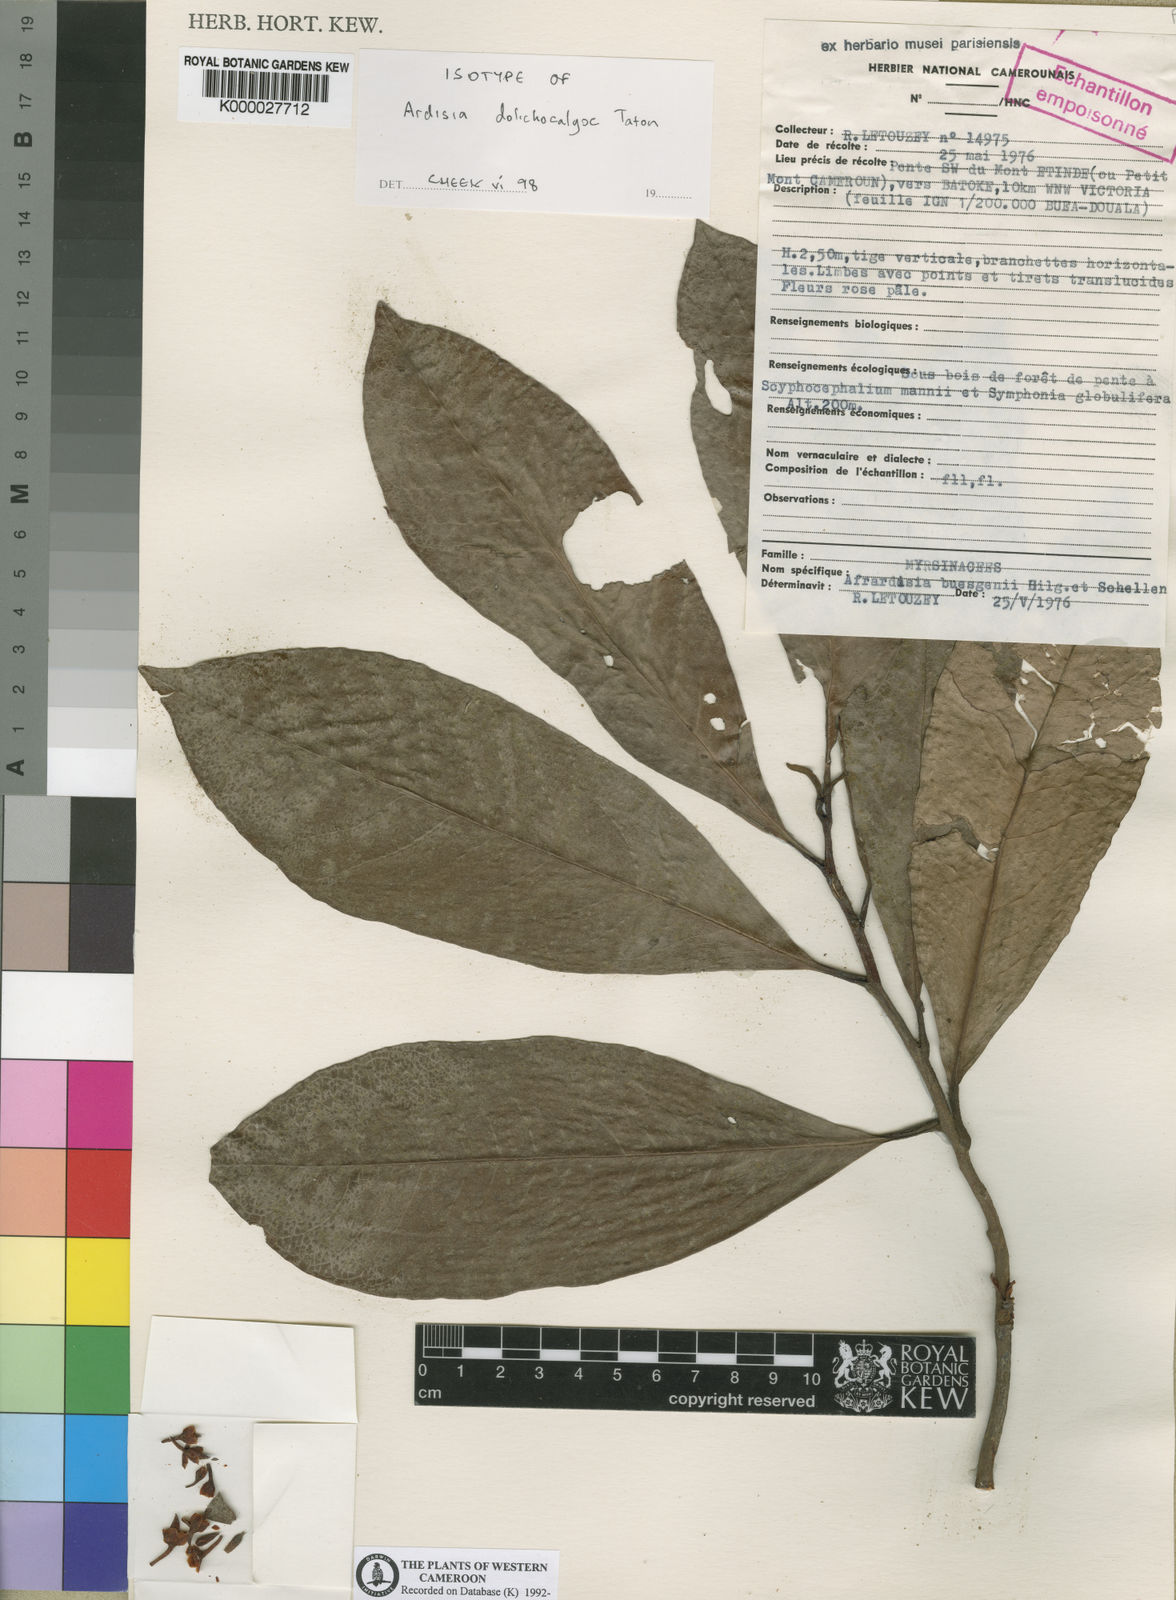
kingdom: Plantae
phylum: Tracheophyta
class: Magnoliopsida
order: Ericales
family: Primulaceae
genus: Ardisia
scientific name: Ardisia dolichocalyx
